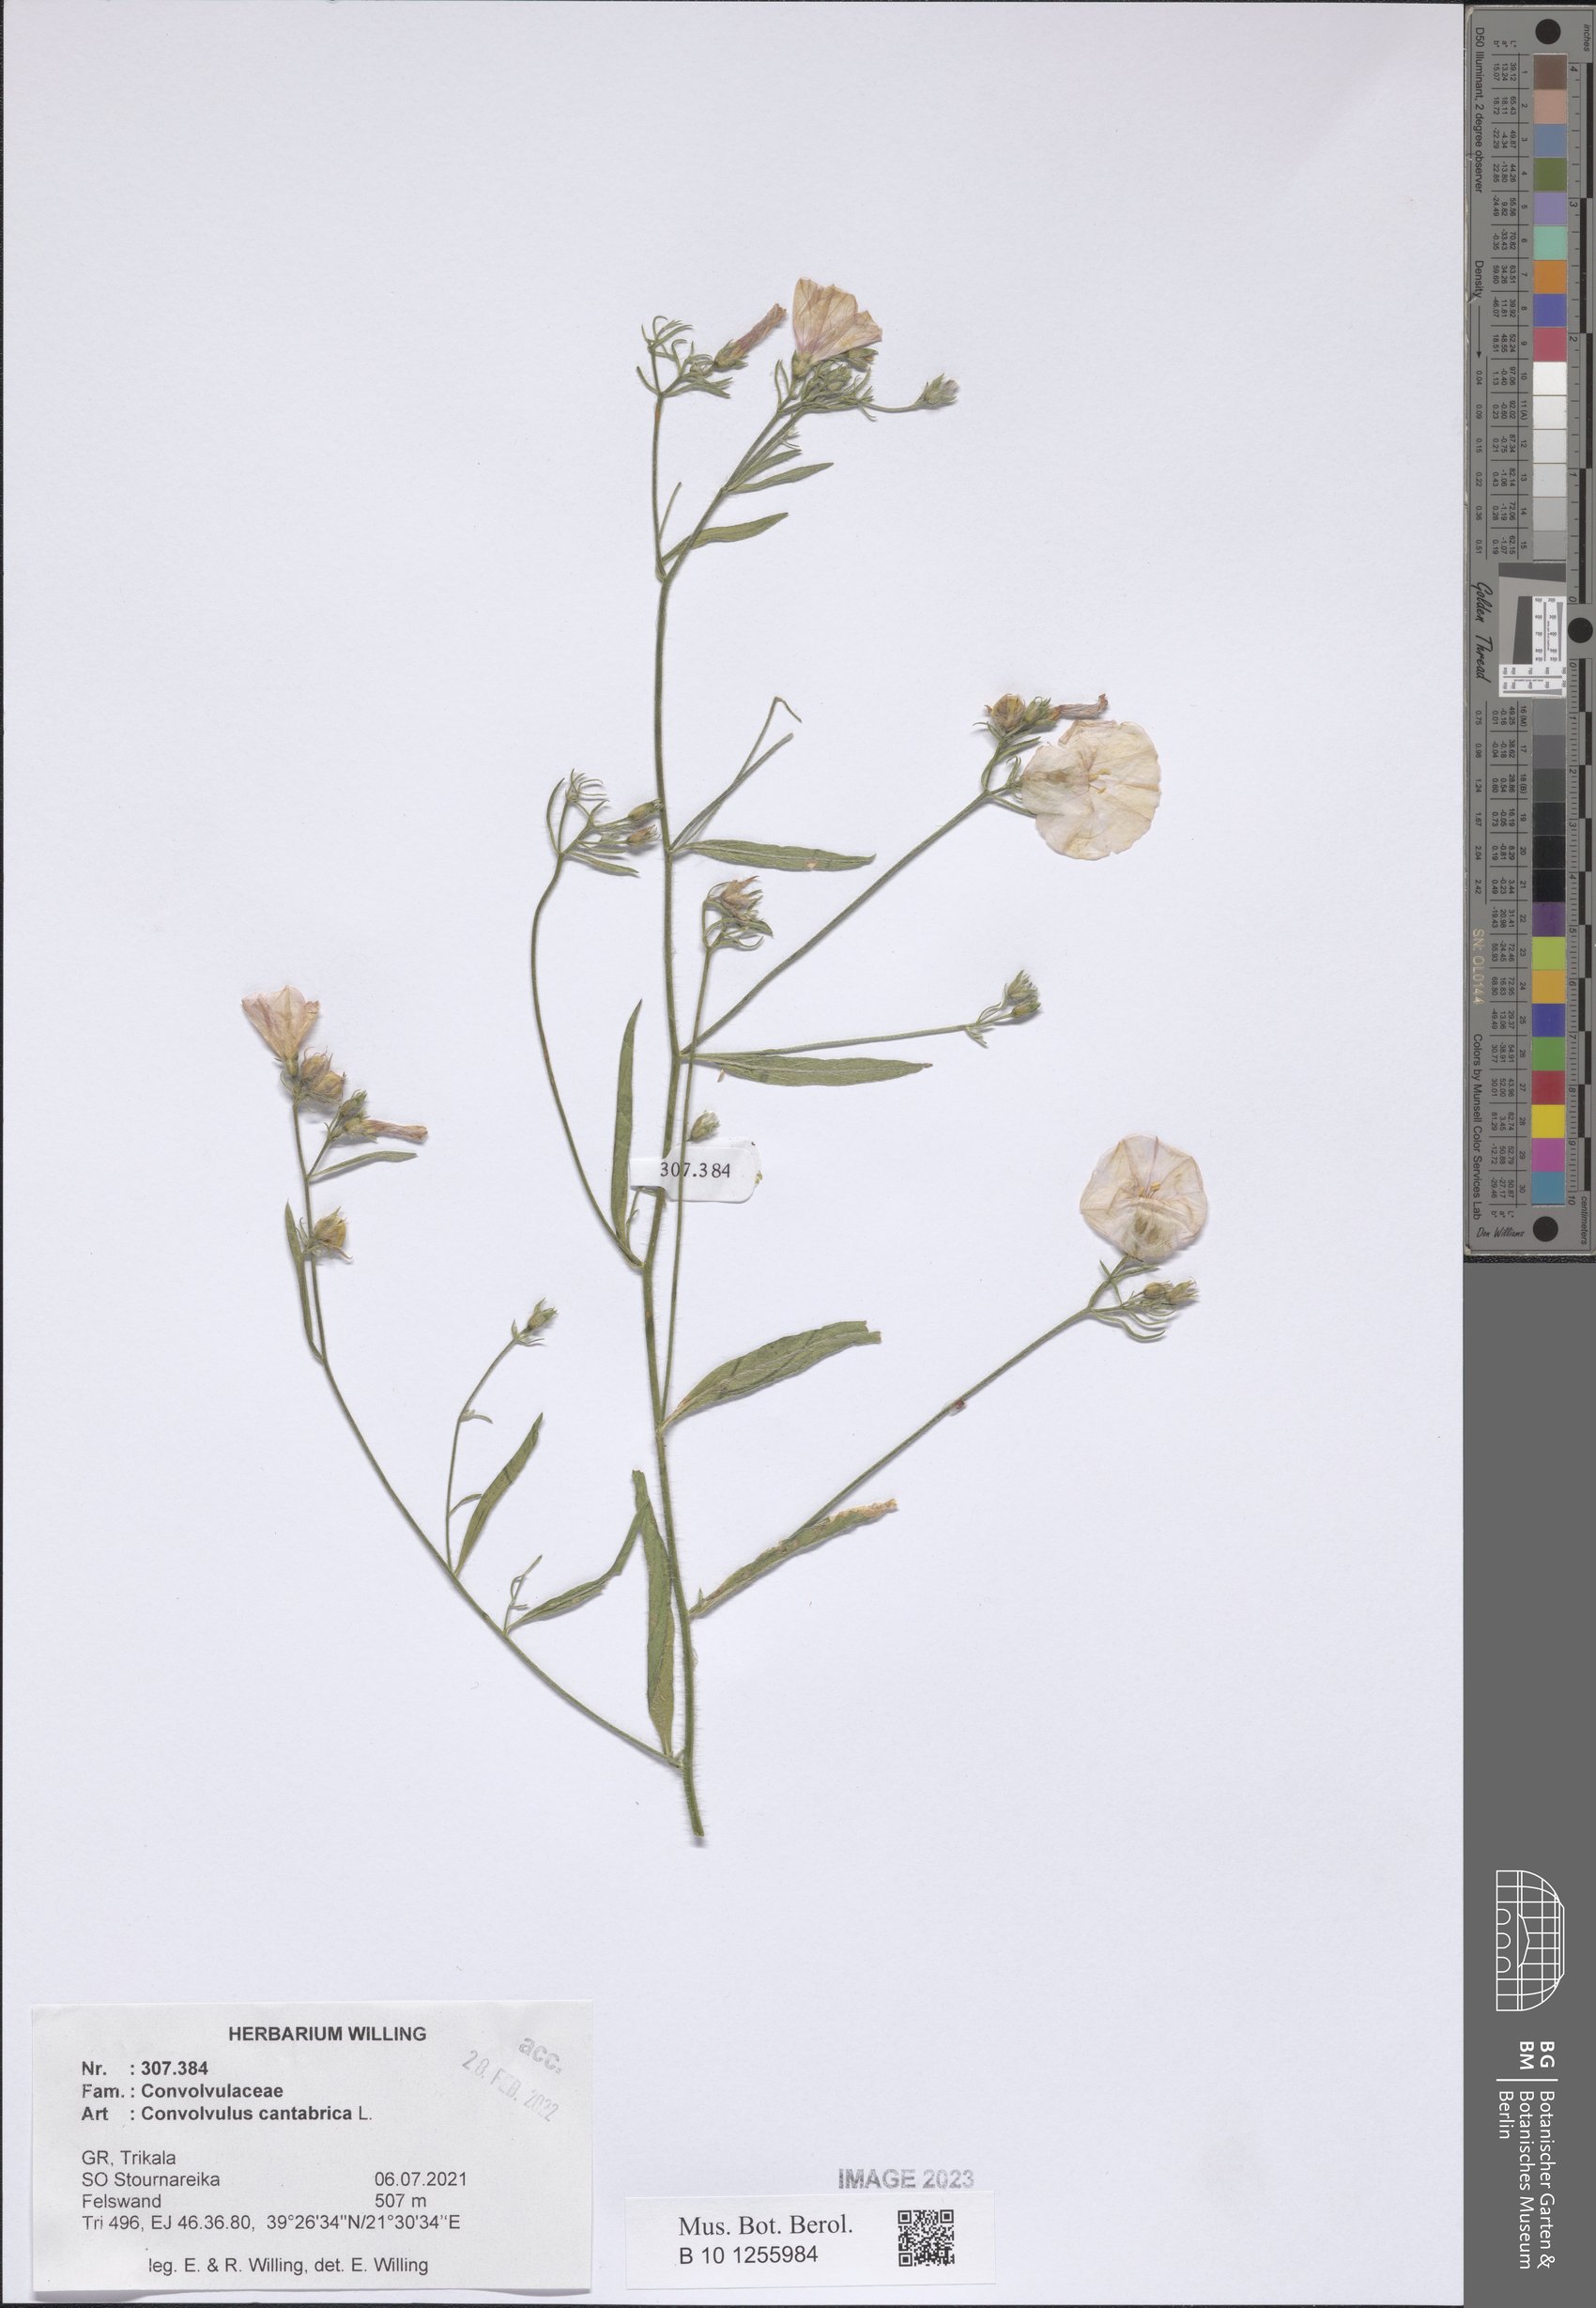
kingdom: Plantae
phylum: Tracheophyta
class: Magnoliopsida
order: Solanales
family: Convolvulaceae
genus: Convolvulus
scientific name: Convolvulus cantabrica
